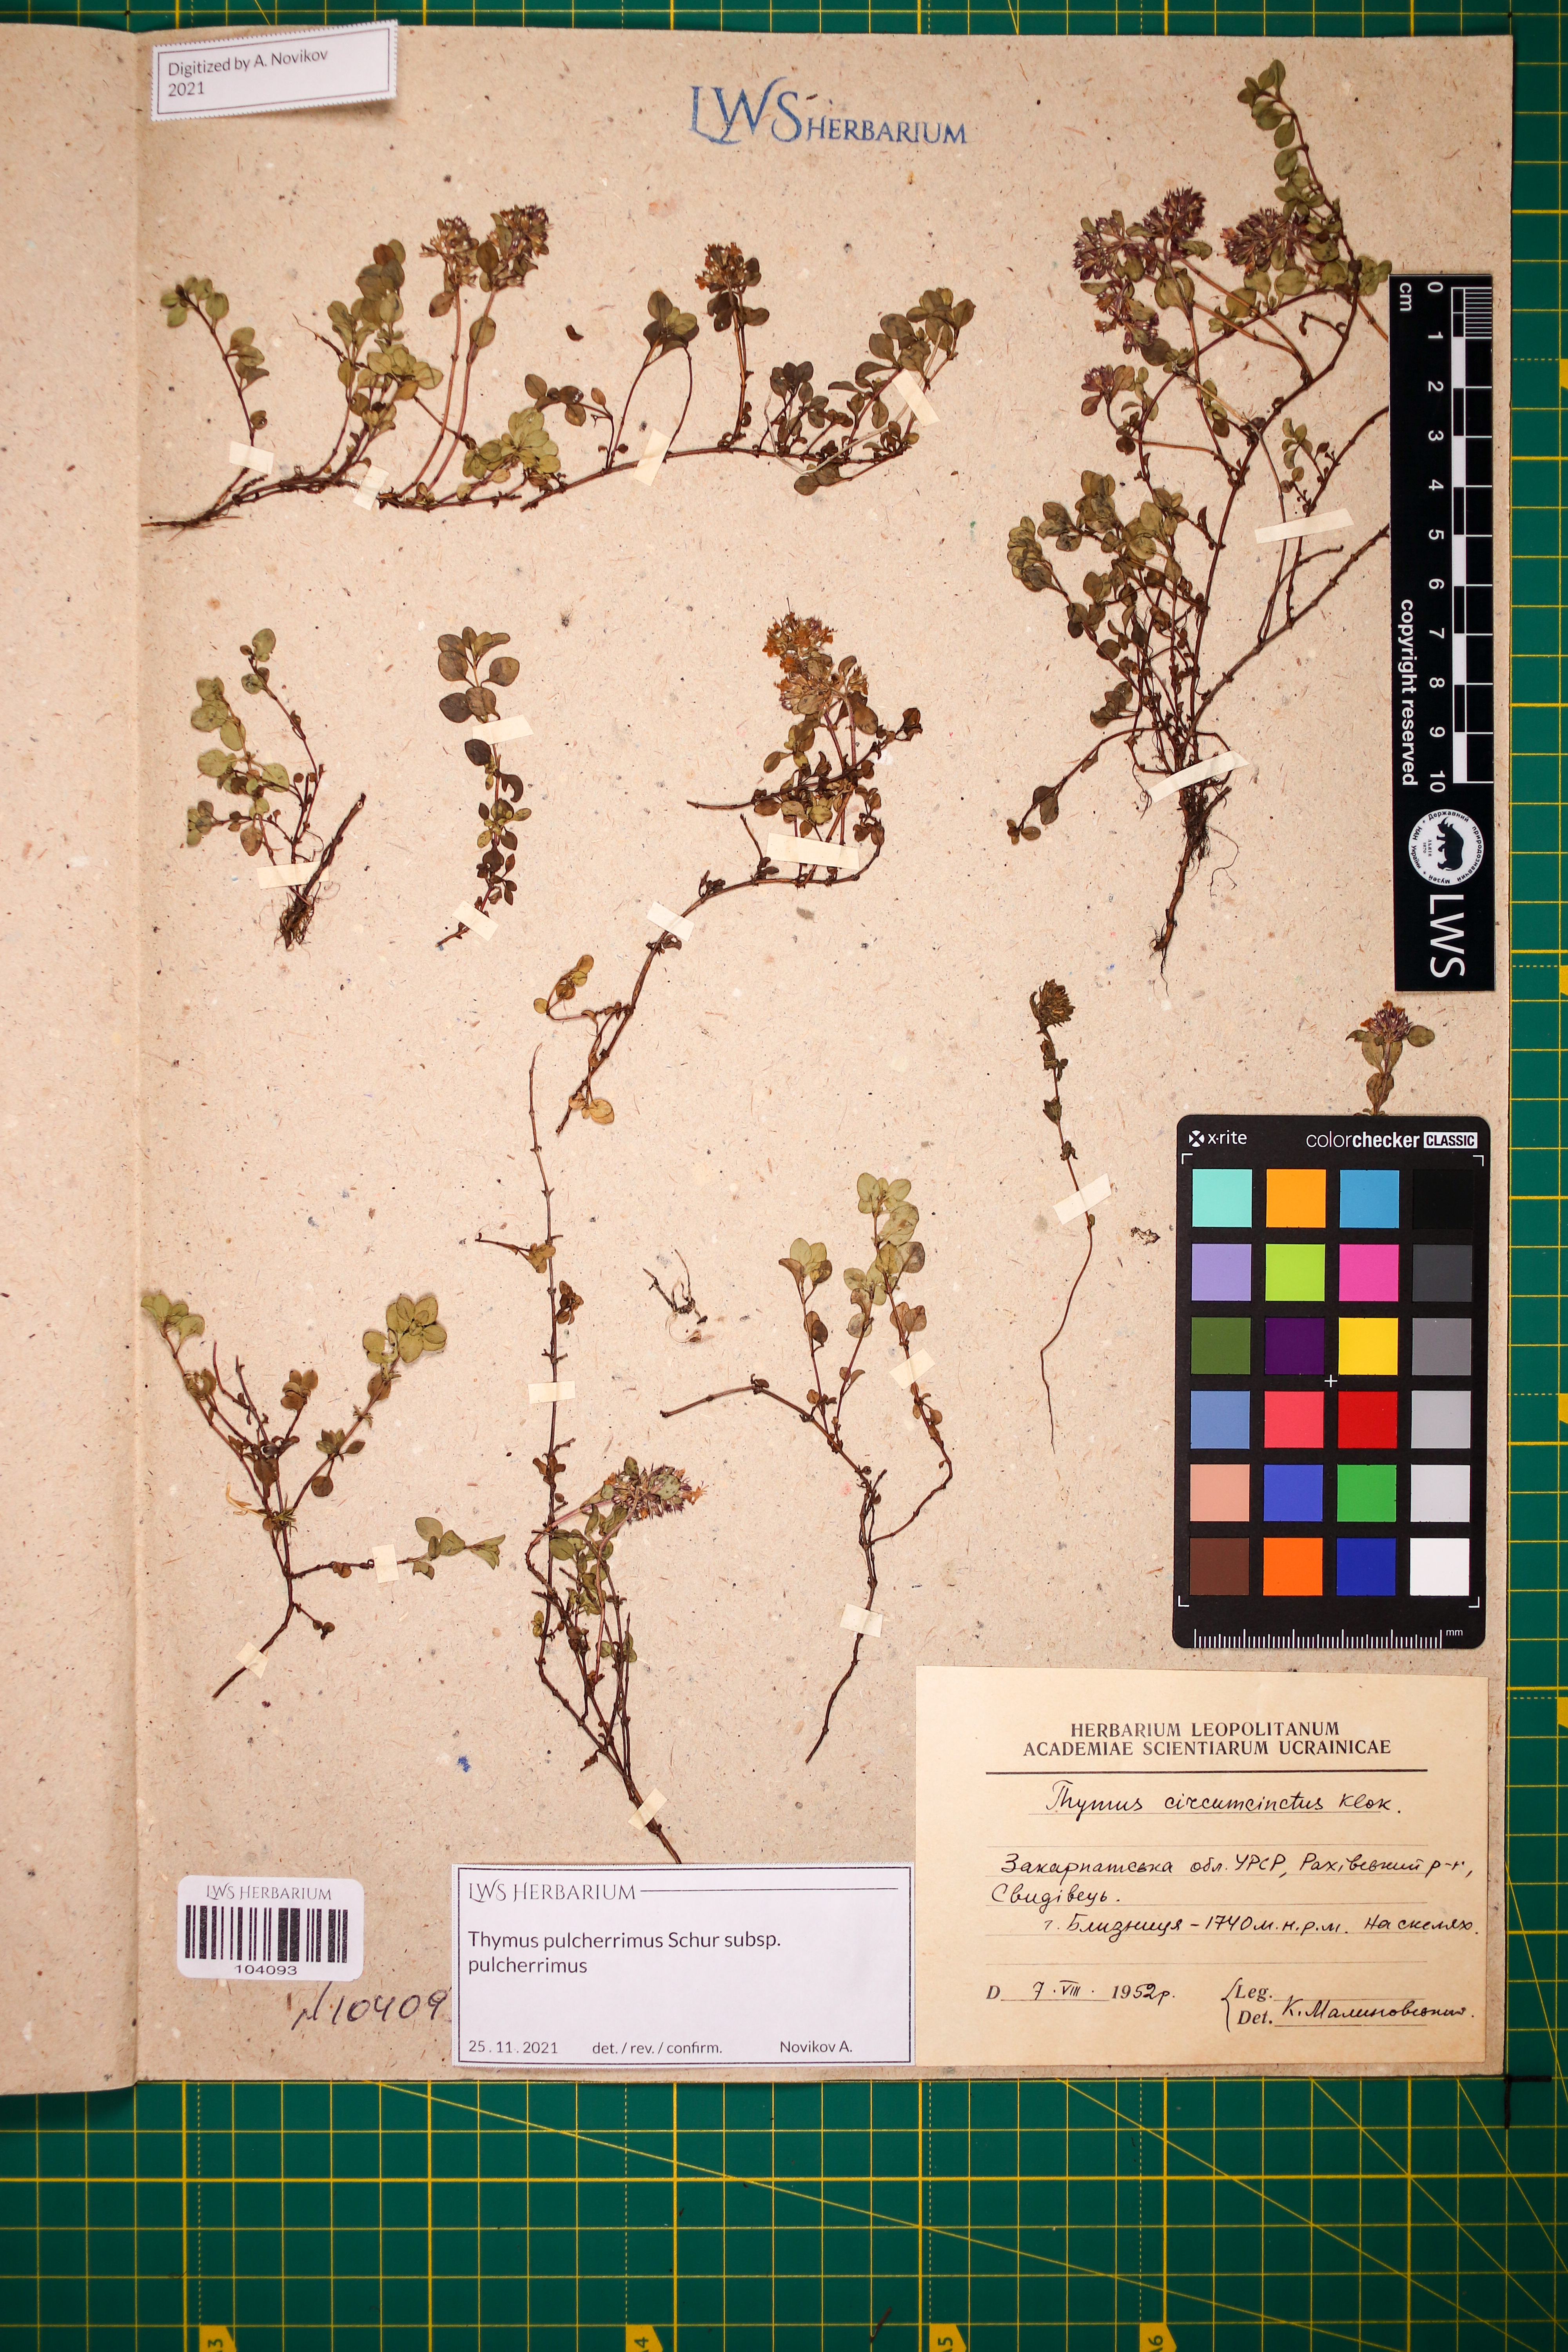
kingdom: Plantae
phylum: Tracheophyta
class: Magnoliopsida
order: Lamiales
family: Lamiaceae
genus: Thymus
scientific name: Thymus pulcherrimus
